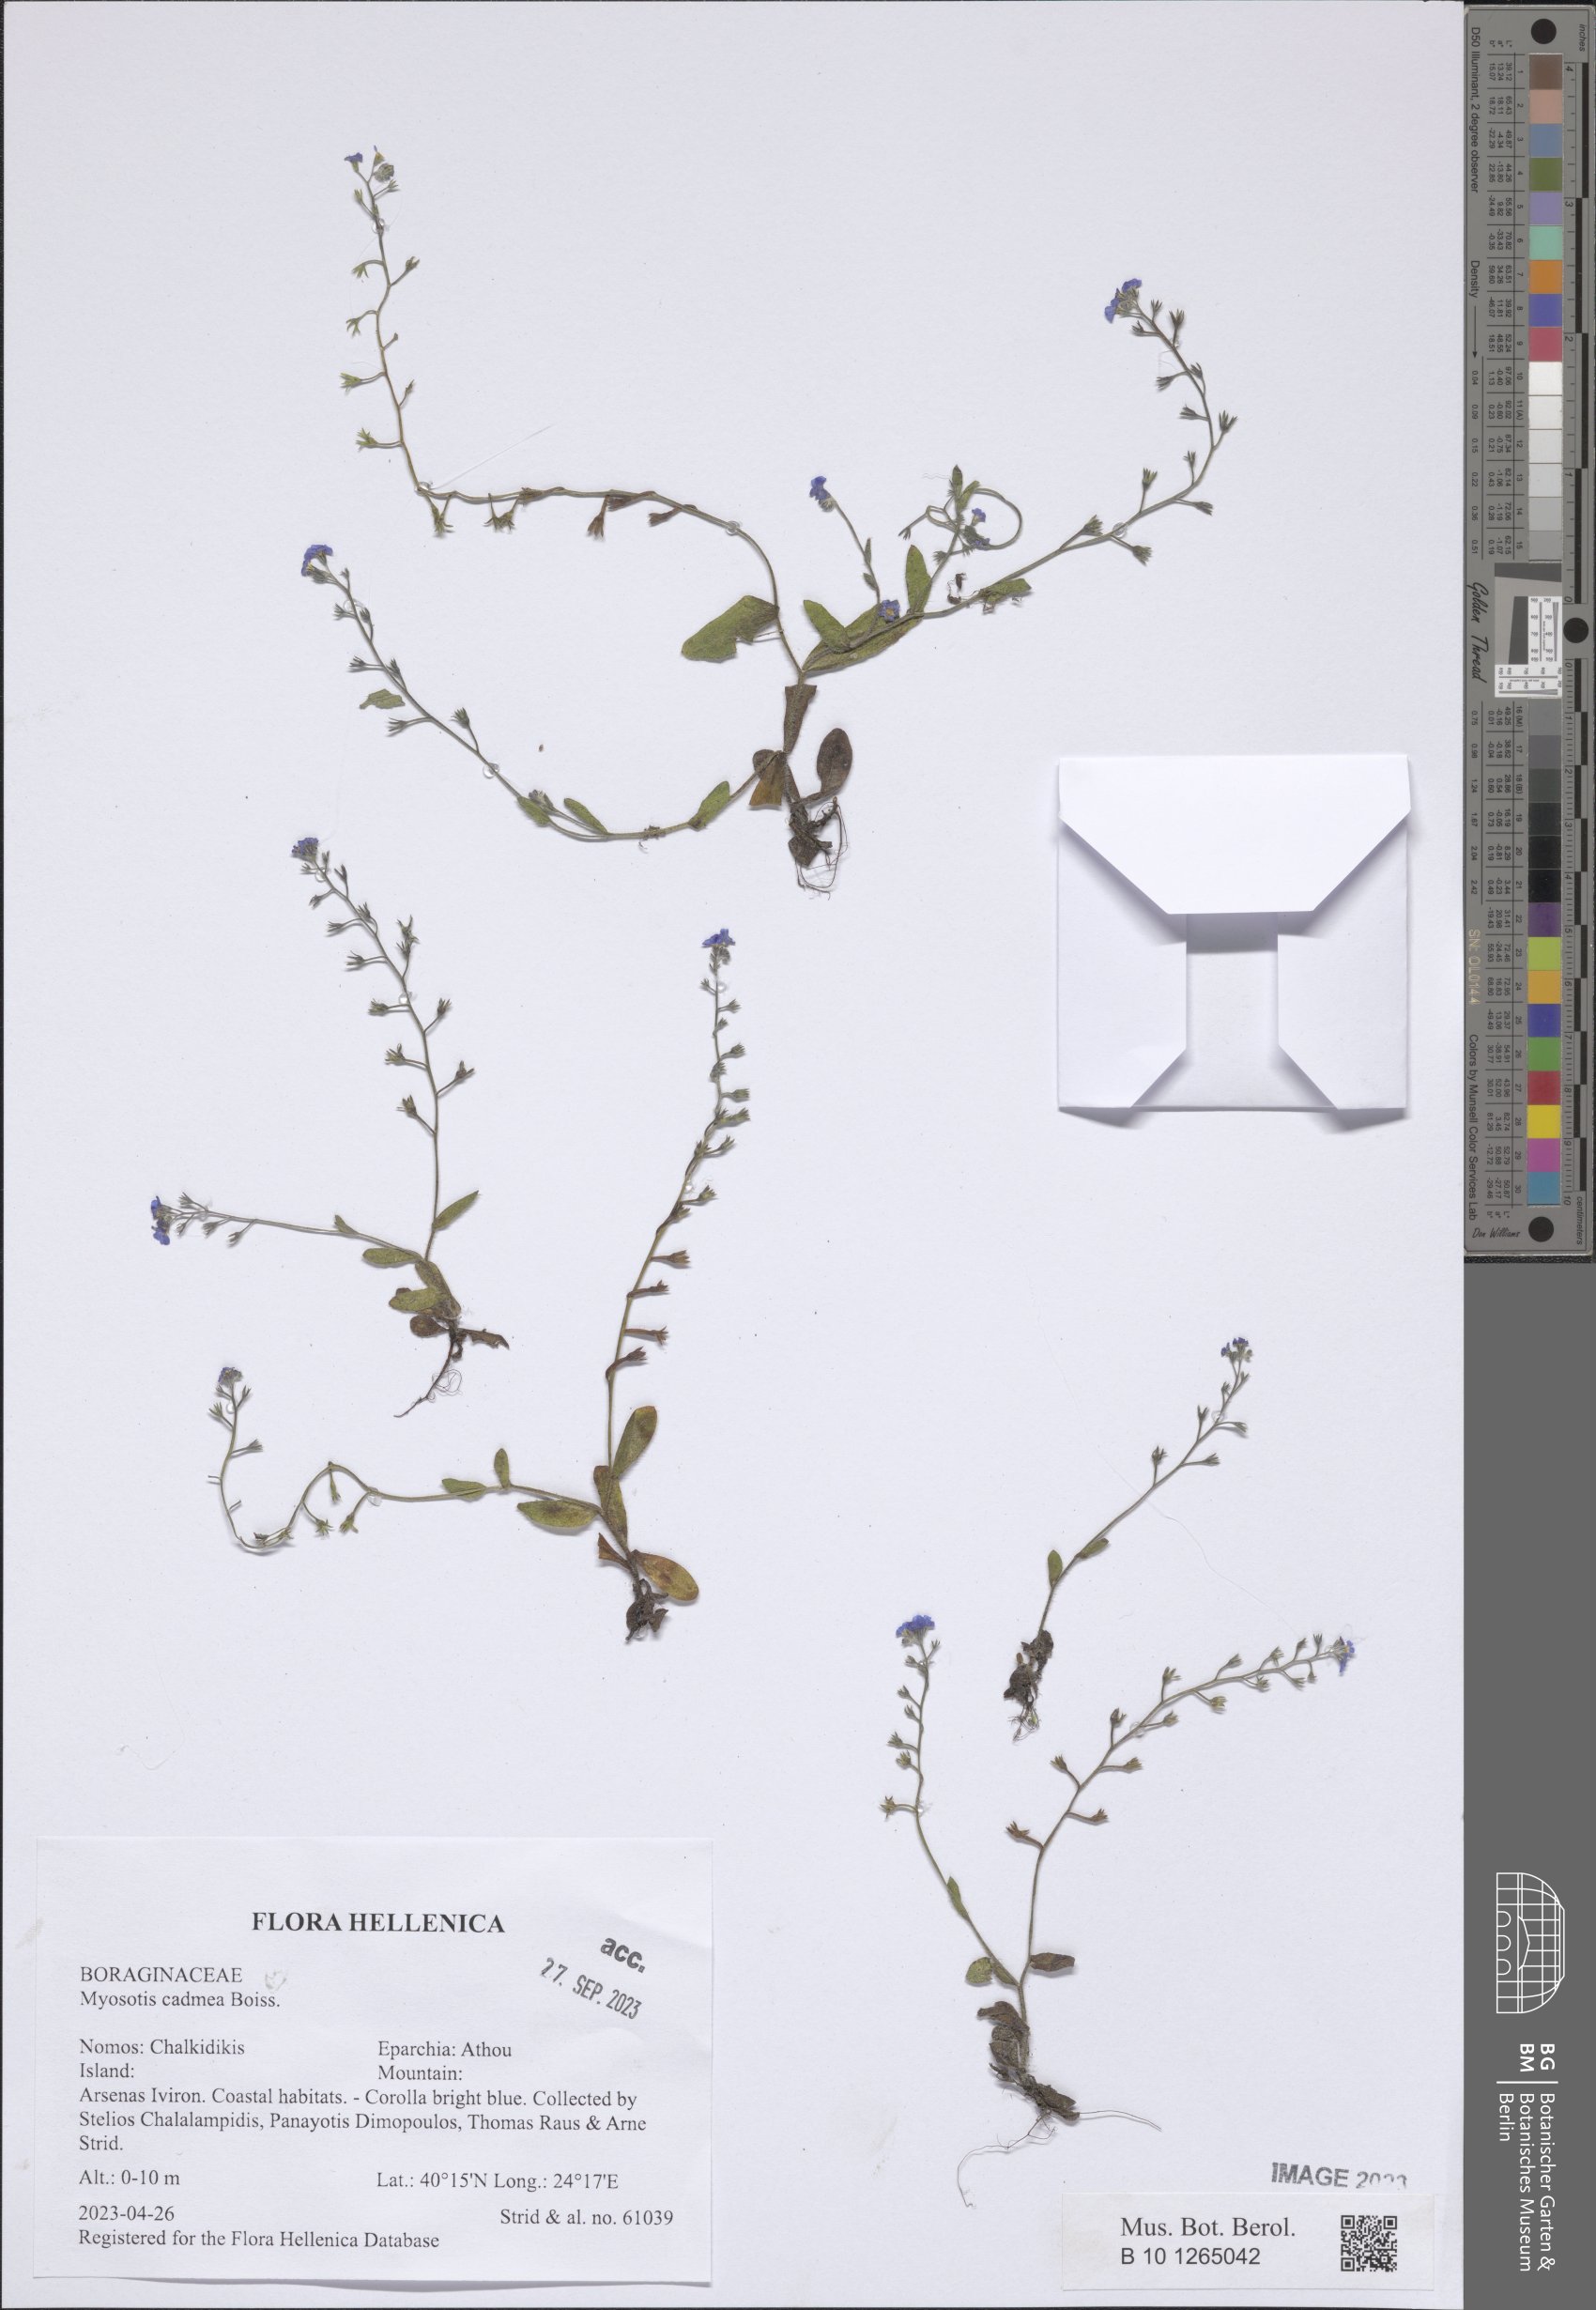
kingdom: Plantae
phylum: Tracheophyta
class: Magnoliopsida
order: Boraginales
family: Boraginaceae
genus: Myosotis
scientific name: Myosotis cadmea
